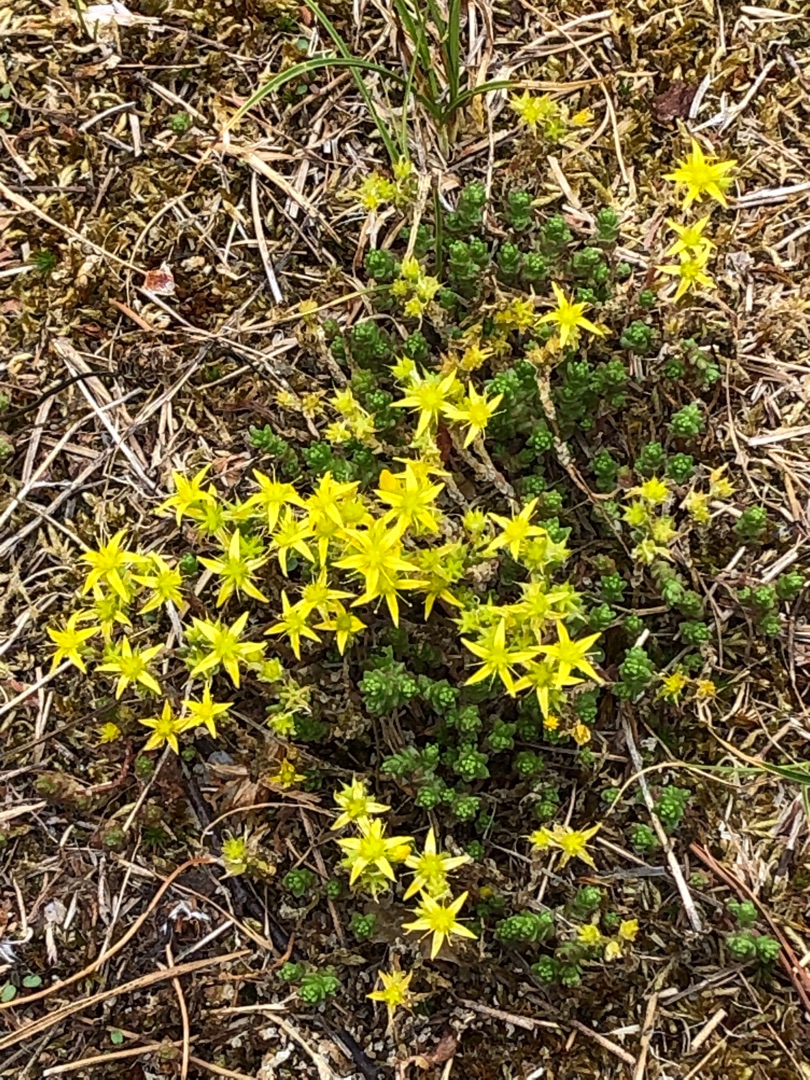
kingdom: Plantae
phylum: Tracheophyta
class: Magnoliopsida
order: Saxifragales
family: Crassulaceae
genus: Sedum
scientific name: Sedum acre
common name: Bidende stenurt
